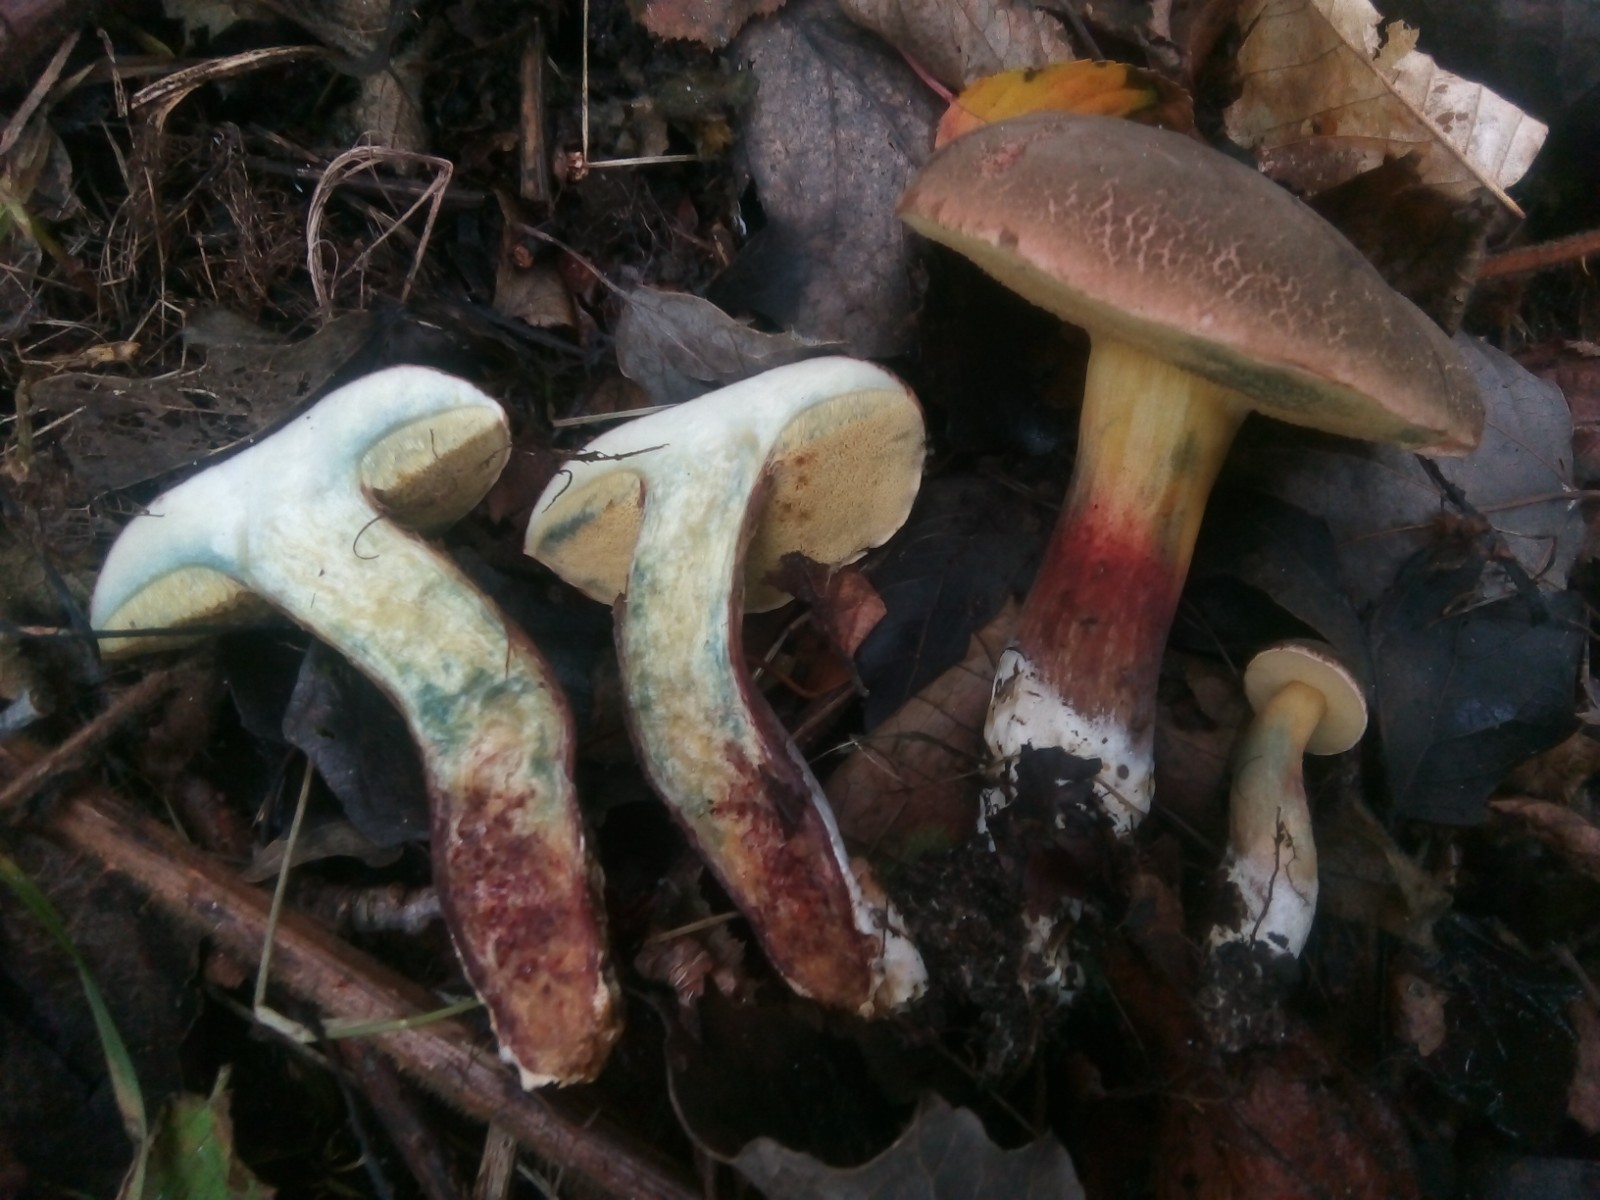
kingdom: Fungi
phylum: Basidiomycota
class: Agaricomycetes
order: Boletales
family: Boletaceae
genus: Xerocomellus
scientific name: Xerocomellus cisalpinus
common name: finsprukken rørhat
